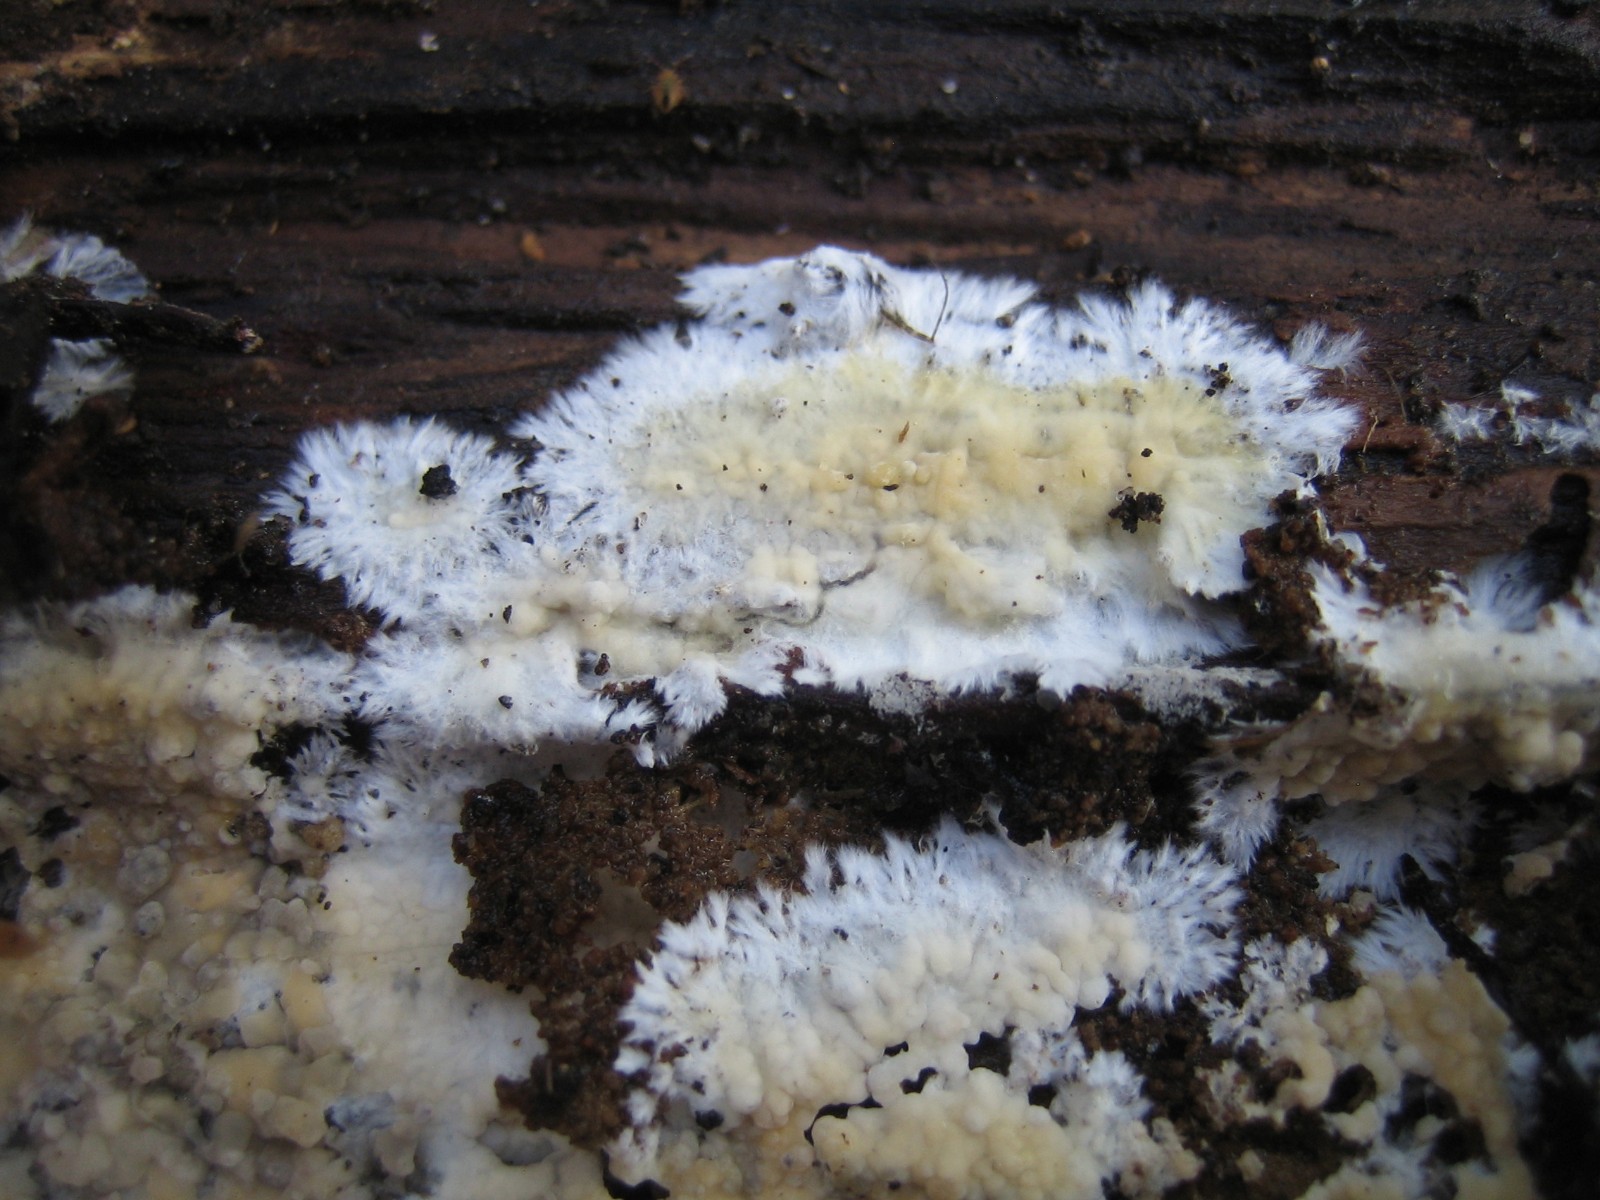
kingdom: Fungi
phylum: Basidiomycota
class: Agaricomycetes
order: Corticiales
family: Corticiaceae
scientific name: Corticiaceae
